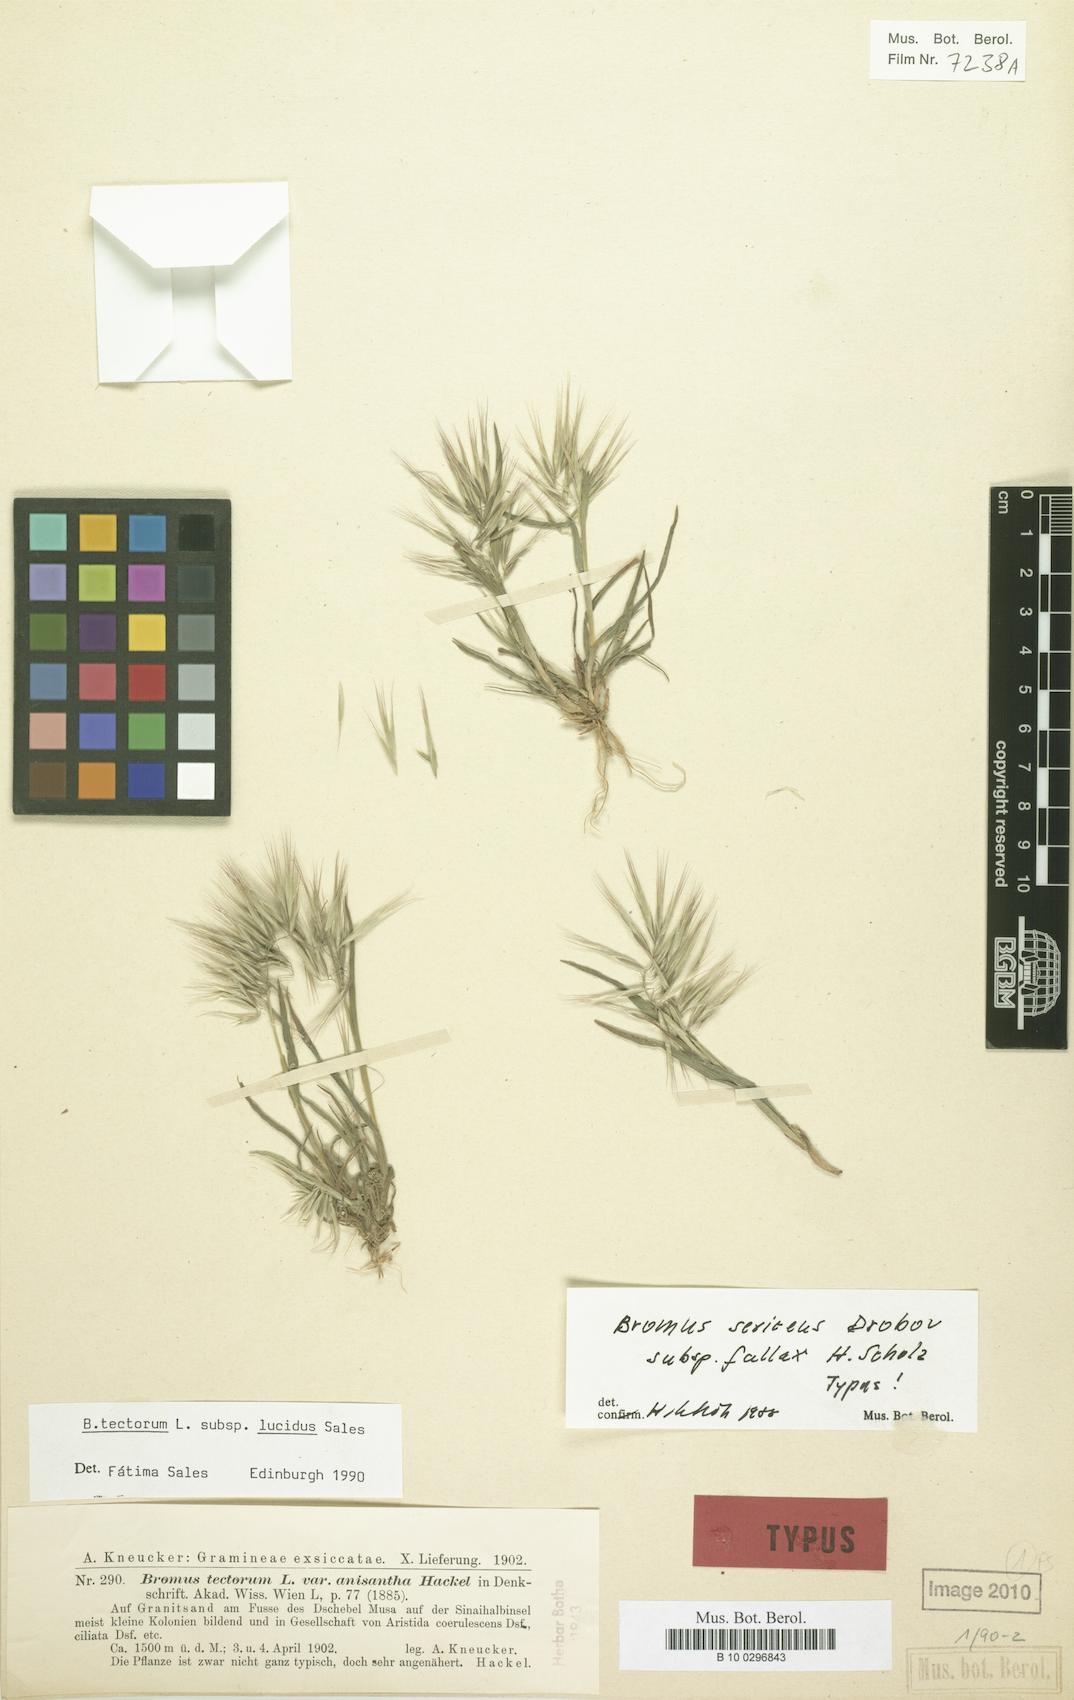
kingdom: Plantae
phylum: Tracheophyta
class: Liliopsida
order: Poales
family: Poaceae
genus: Bromus
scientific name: Bromus moeszii
